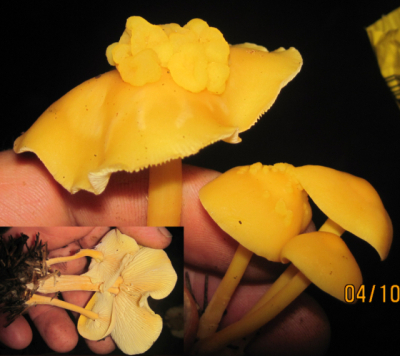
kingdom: Fungi
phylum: Basidiomycota
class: Tremellomycetes
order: Filobasidiales
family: Filobasidiaceae
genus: Syzygospora
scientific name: Syzygospora tumefaciens
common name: fladhatte-snyltehjerne
